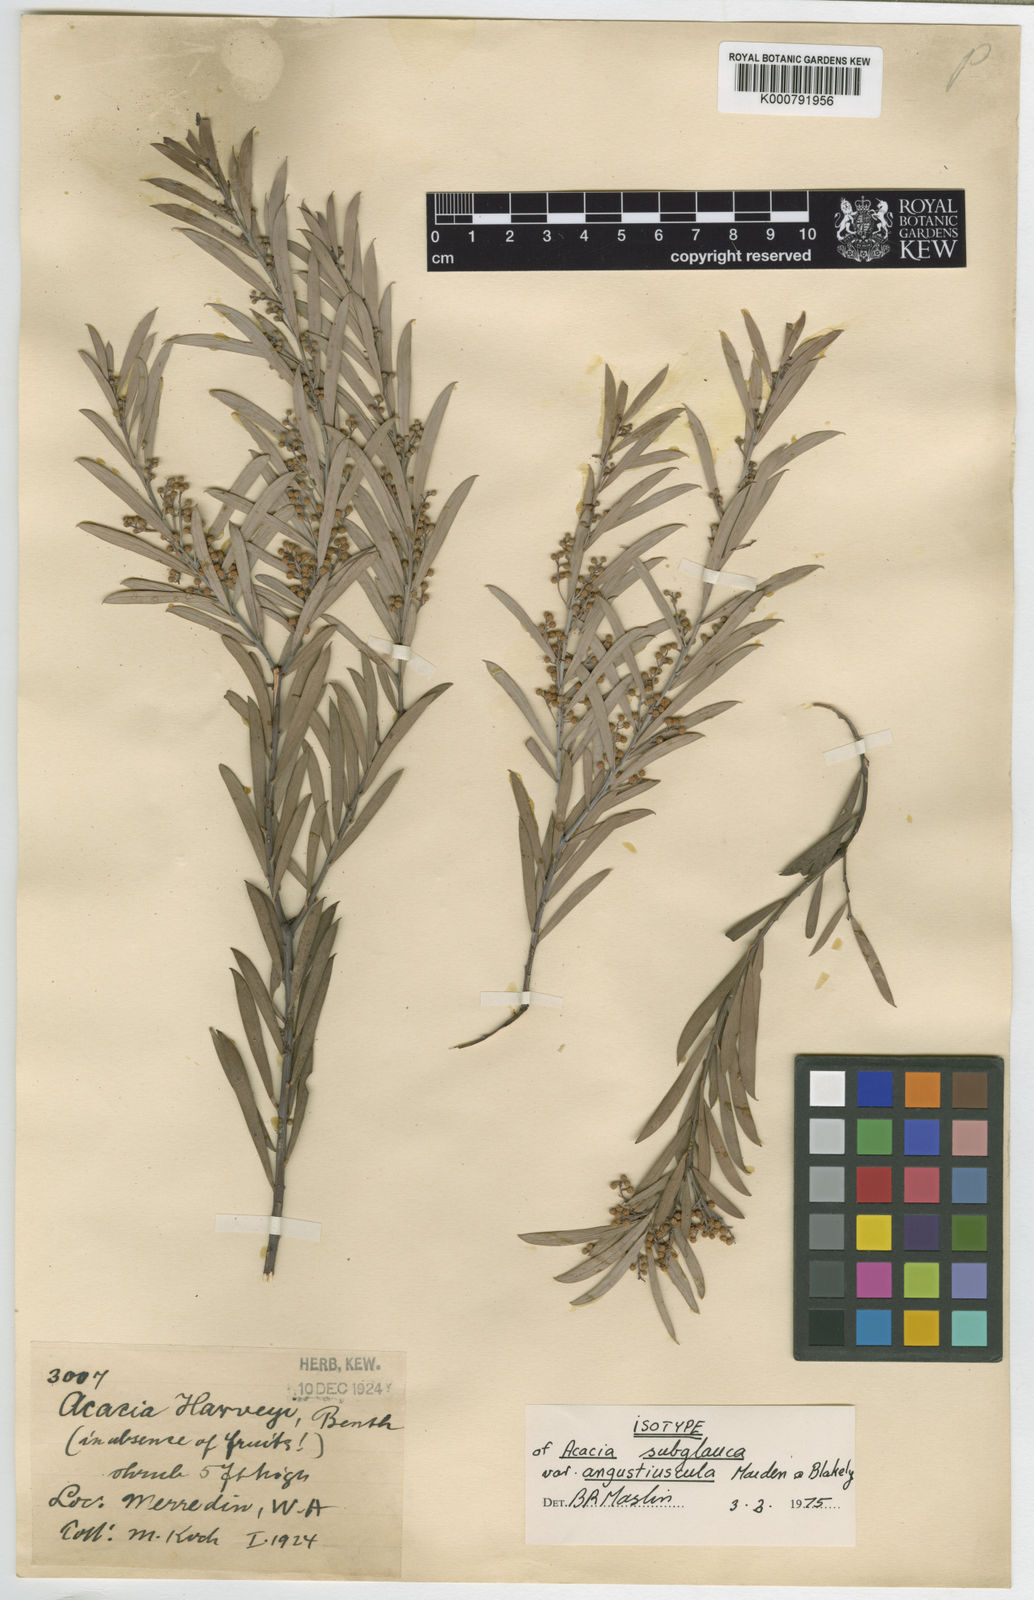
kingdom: Plantae
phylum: Tracheophyta
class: Magnoliopsida
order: Fabales
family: Fabaceae
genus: Acacia
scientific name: Acacia leptopetala
